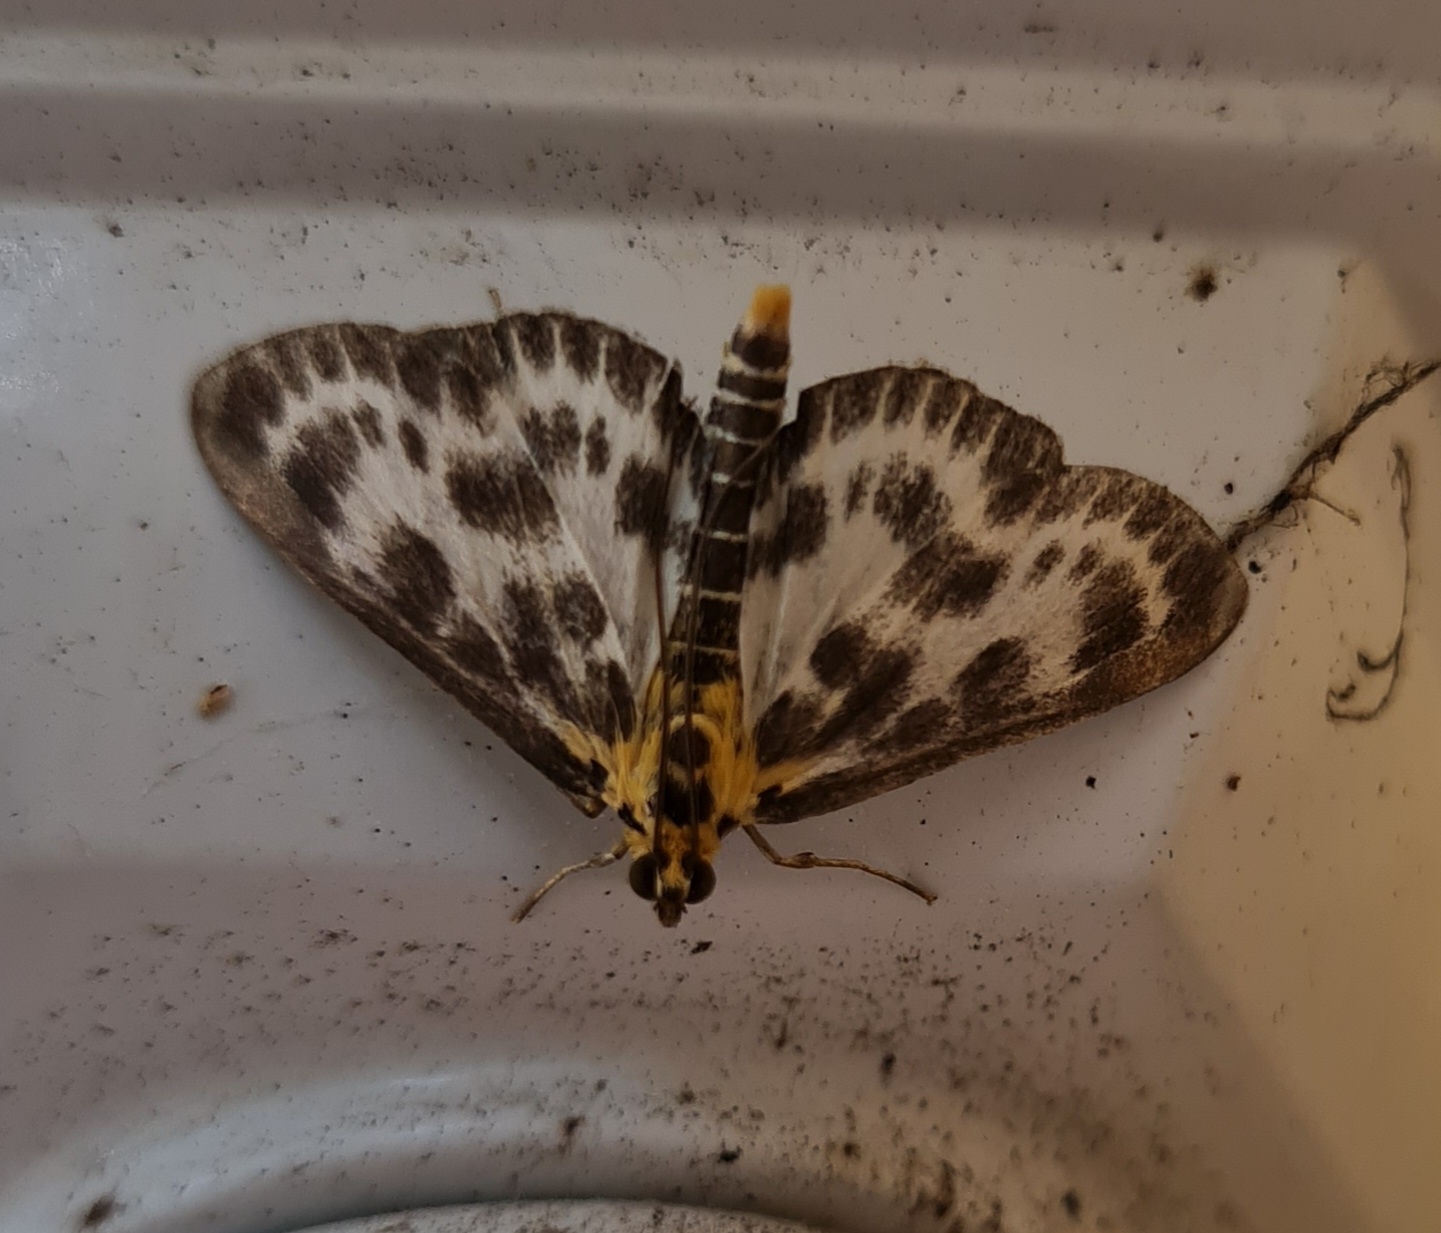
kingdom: Animalia
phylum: Arthropoda
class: Insecta
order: Lepidoptera
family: Crambidae
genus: Anania
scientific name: Anania hortulata
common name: Nældehalvmøl
